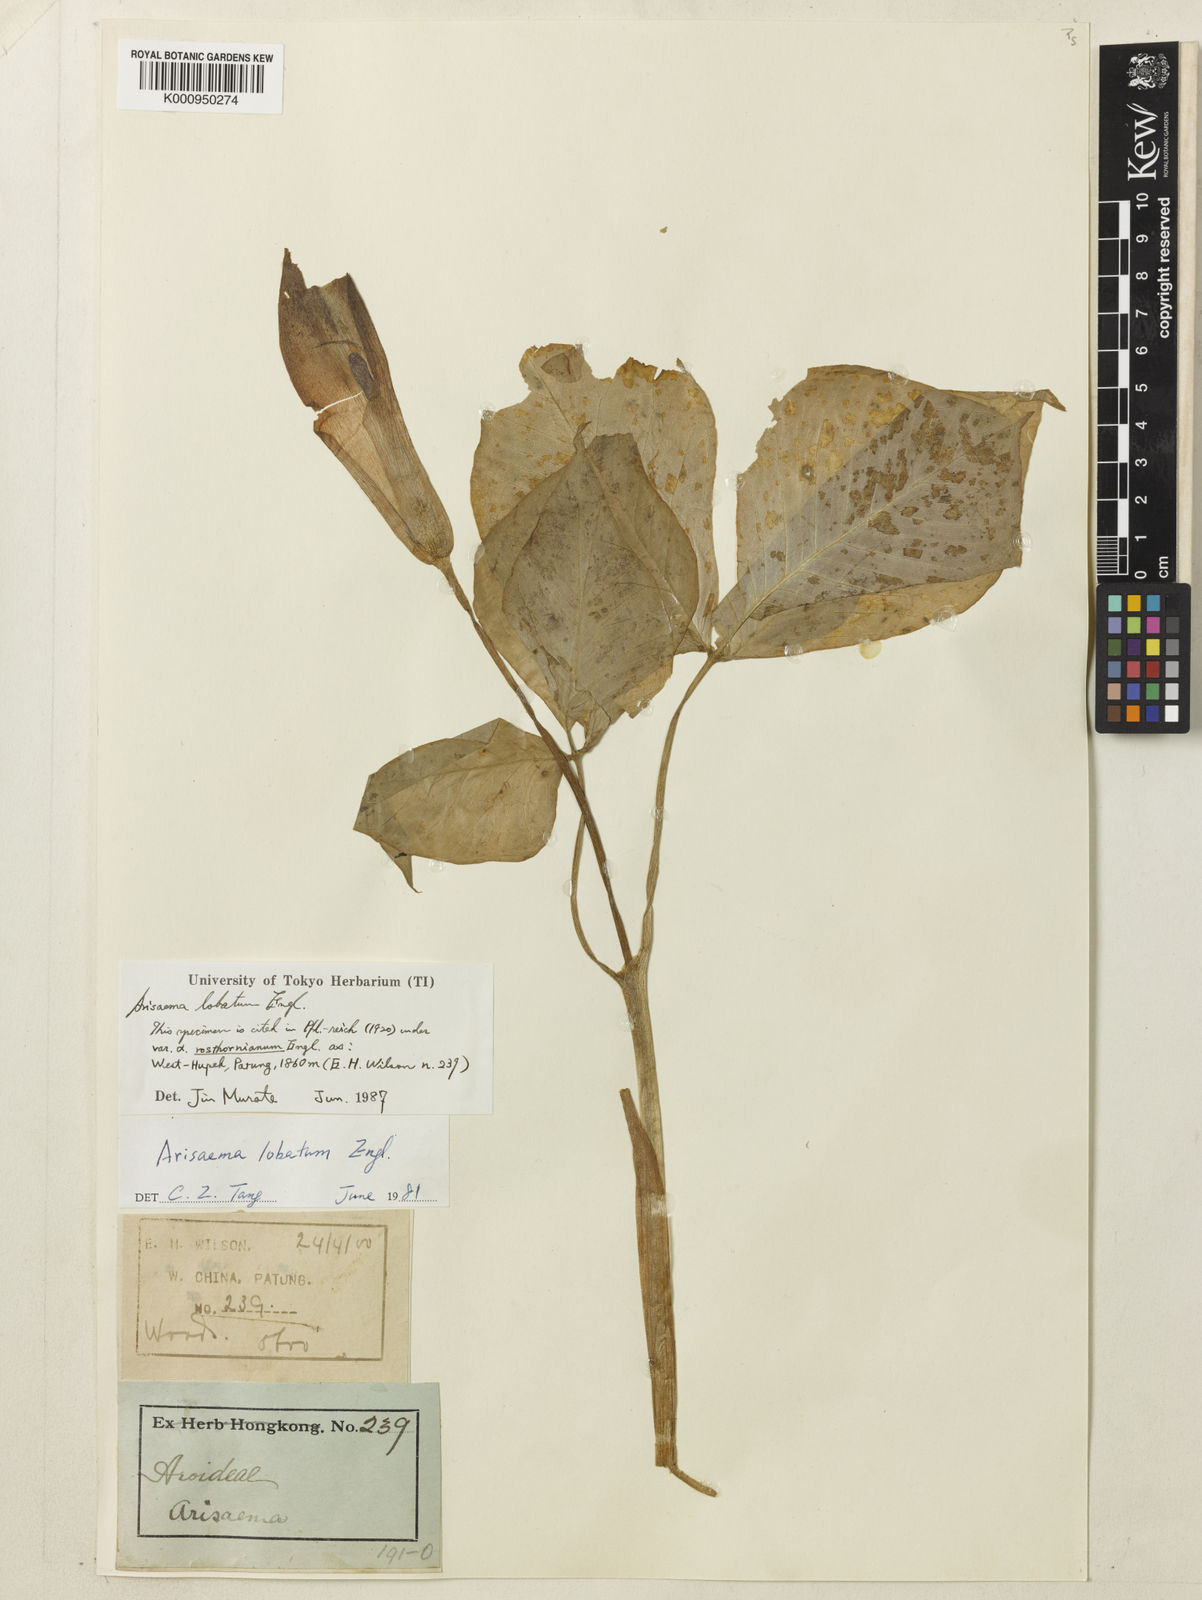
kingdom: Plantae
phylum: Tracheophyta
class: Liliopsida
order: Alismatales
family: Araceae
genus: Arisaema
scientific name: Arisaema lobatum
